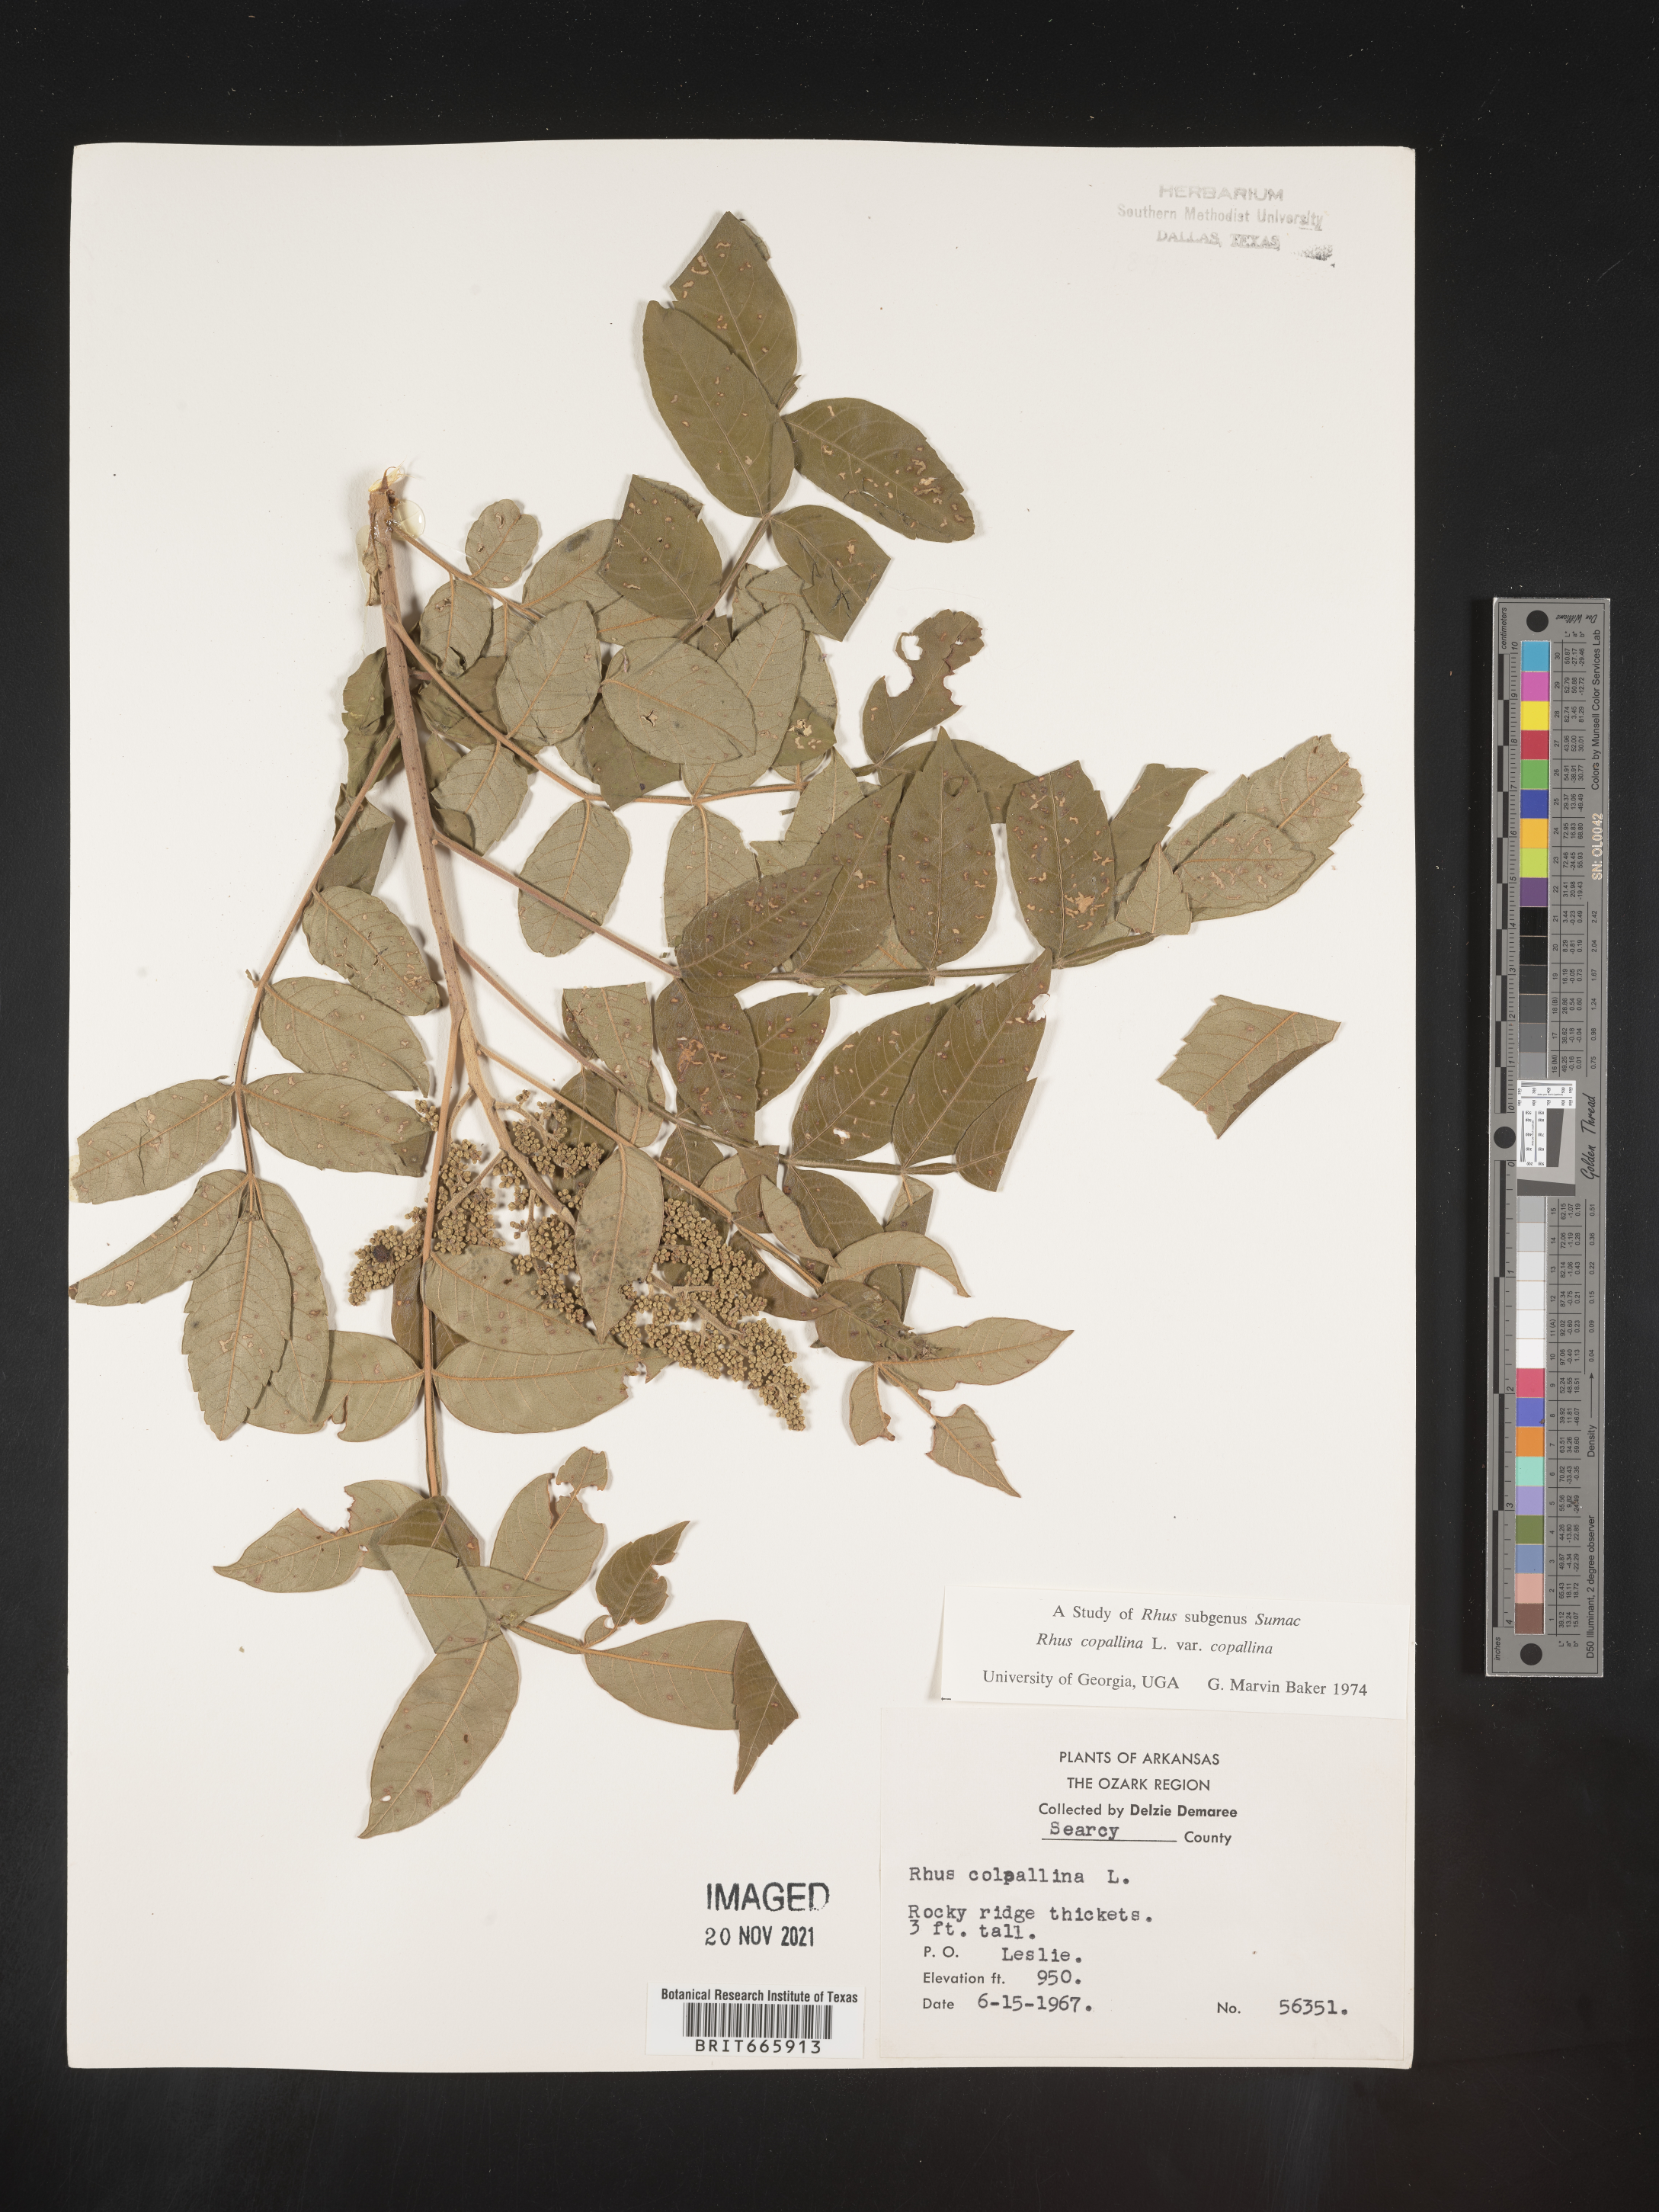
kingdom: Plantae
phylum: Tracheophyta
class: Magnoliopsida
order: Sapindales
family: Anacardiaceae
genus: Rhus
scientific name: Rhus copallina
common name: Shining sumac
